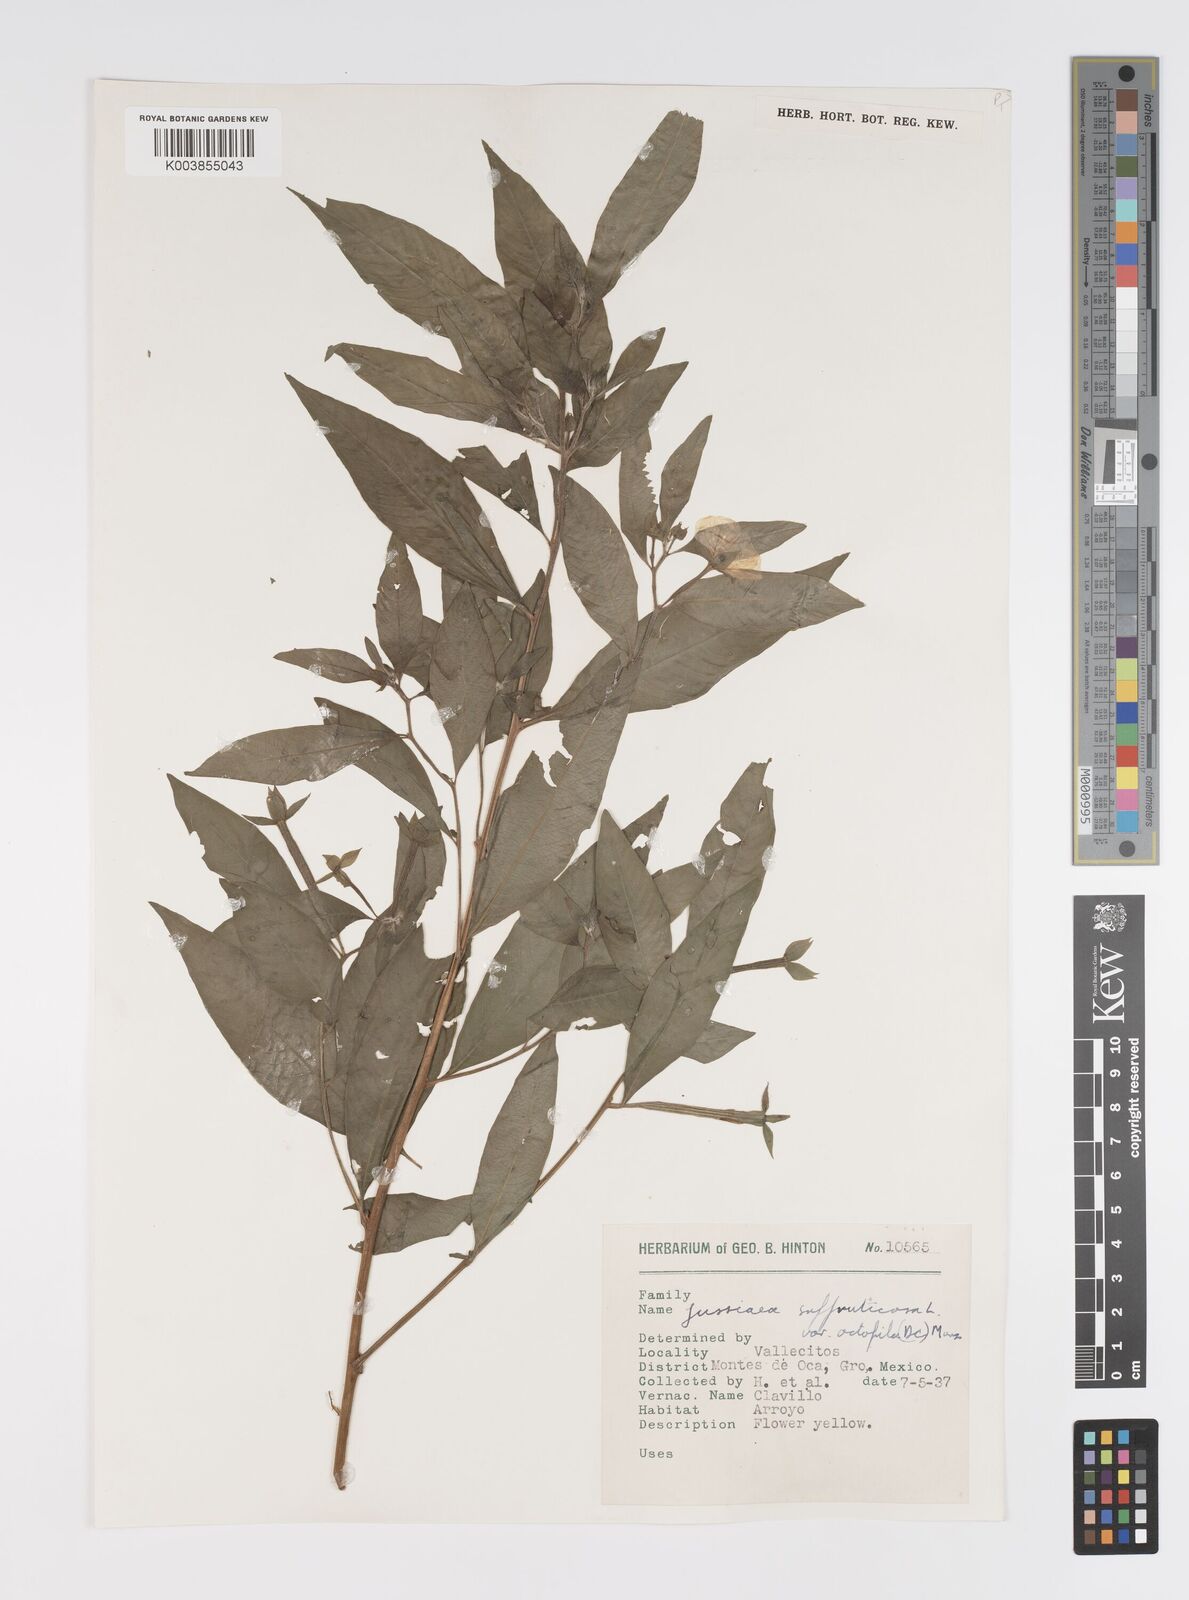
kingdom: Plantae
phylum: Tracheophyta
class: Magnoliopsida
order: Myrtales
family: Onagraceae
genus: Ludwigia
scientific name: Ludwigia octovalvis
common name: Water-primrose
